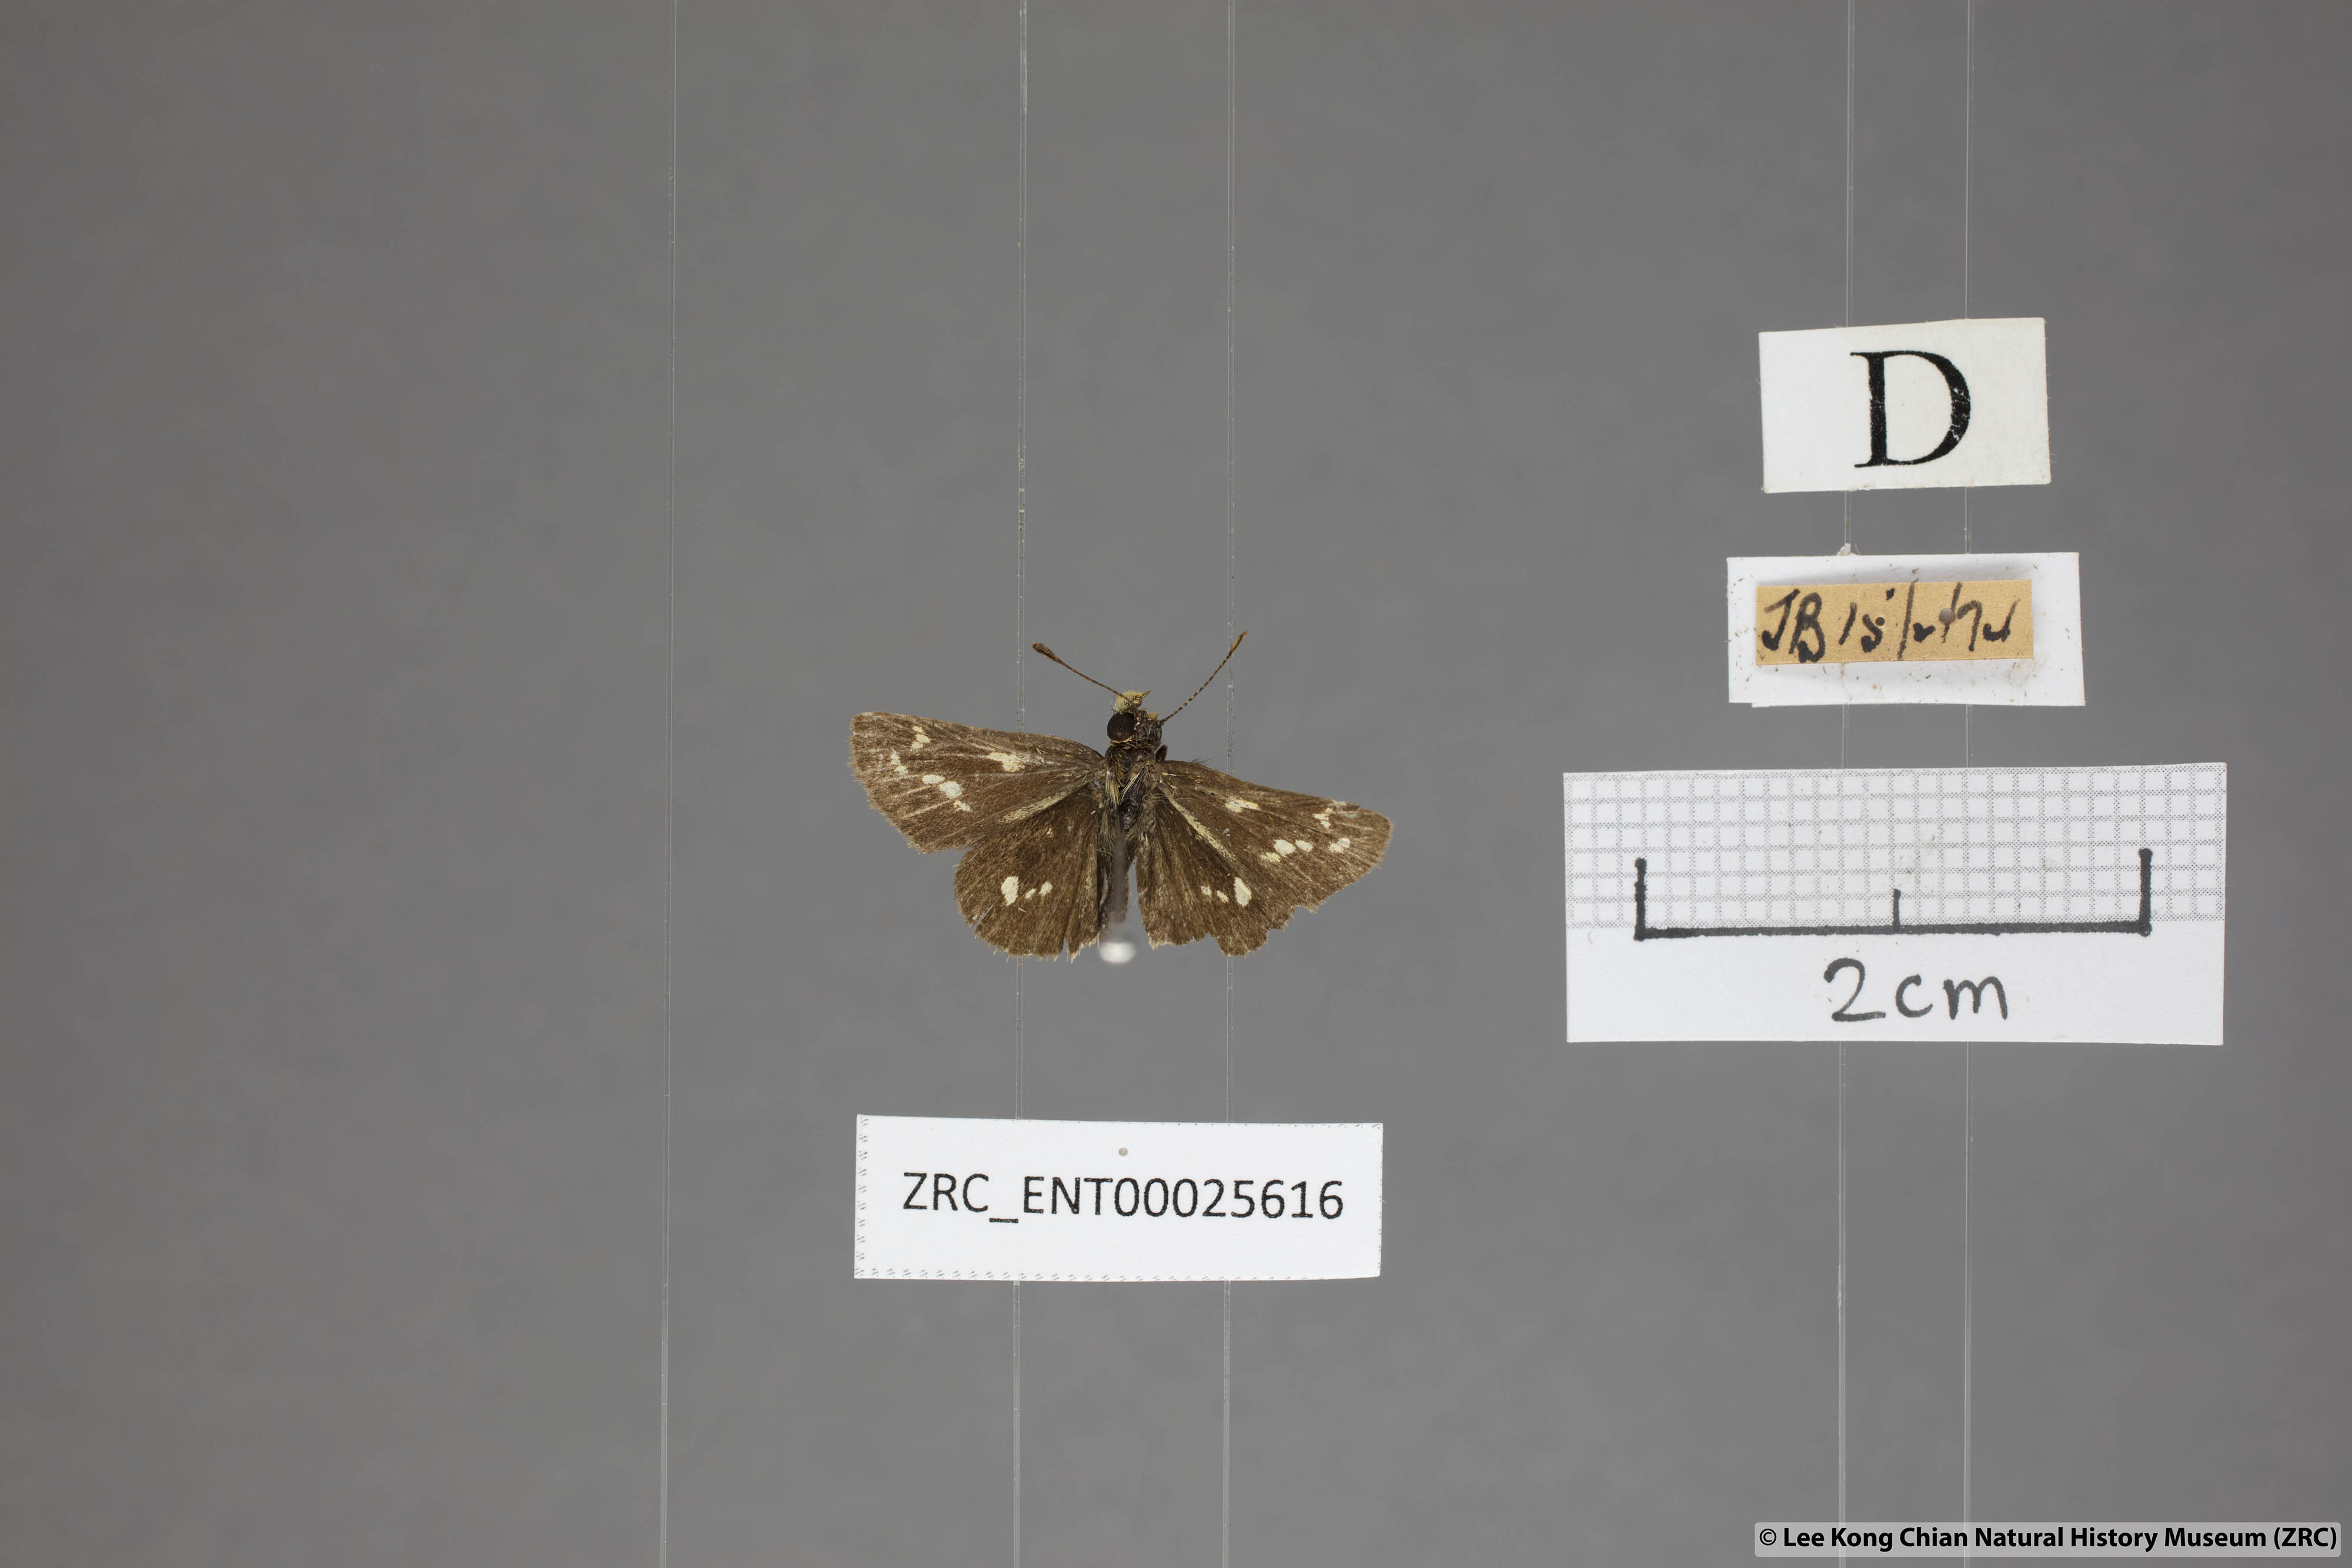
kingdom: Animalia
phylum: Arthropoda
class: Insecta
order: Lepidoptera
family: Hesperiidae
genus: Taractrocera
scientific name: Taractrocera ardonia
